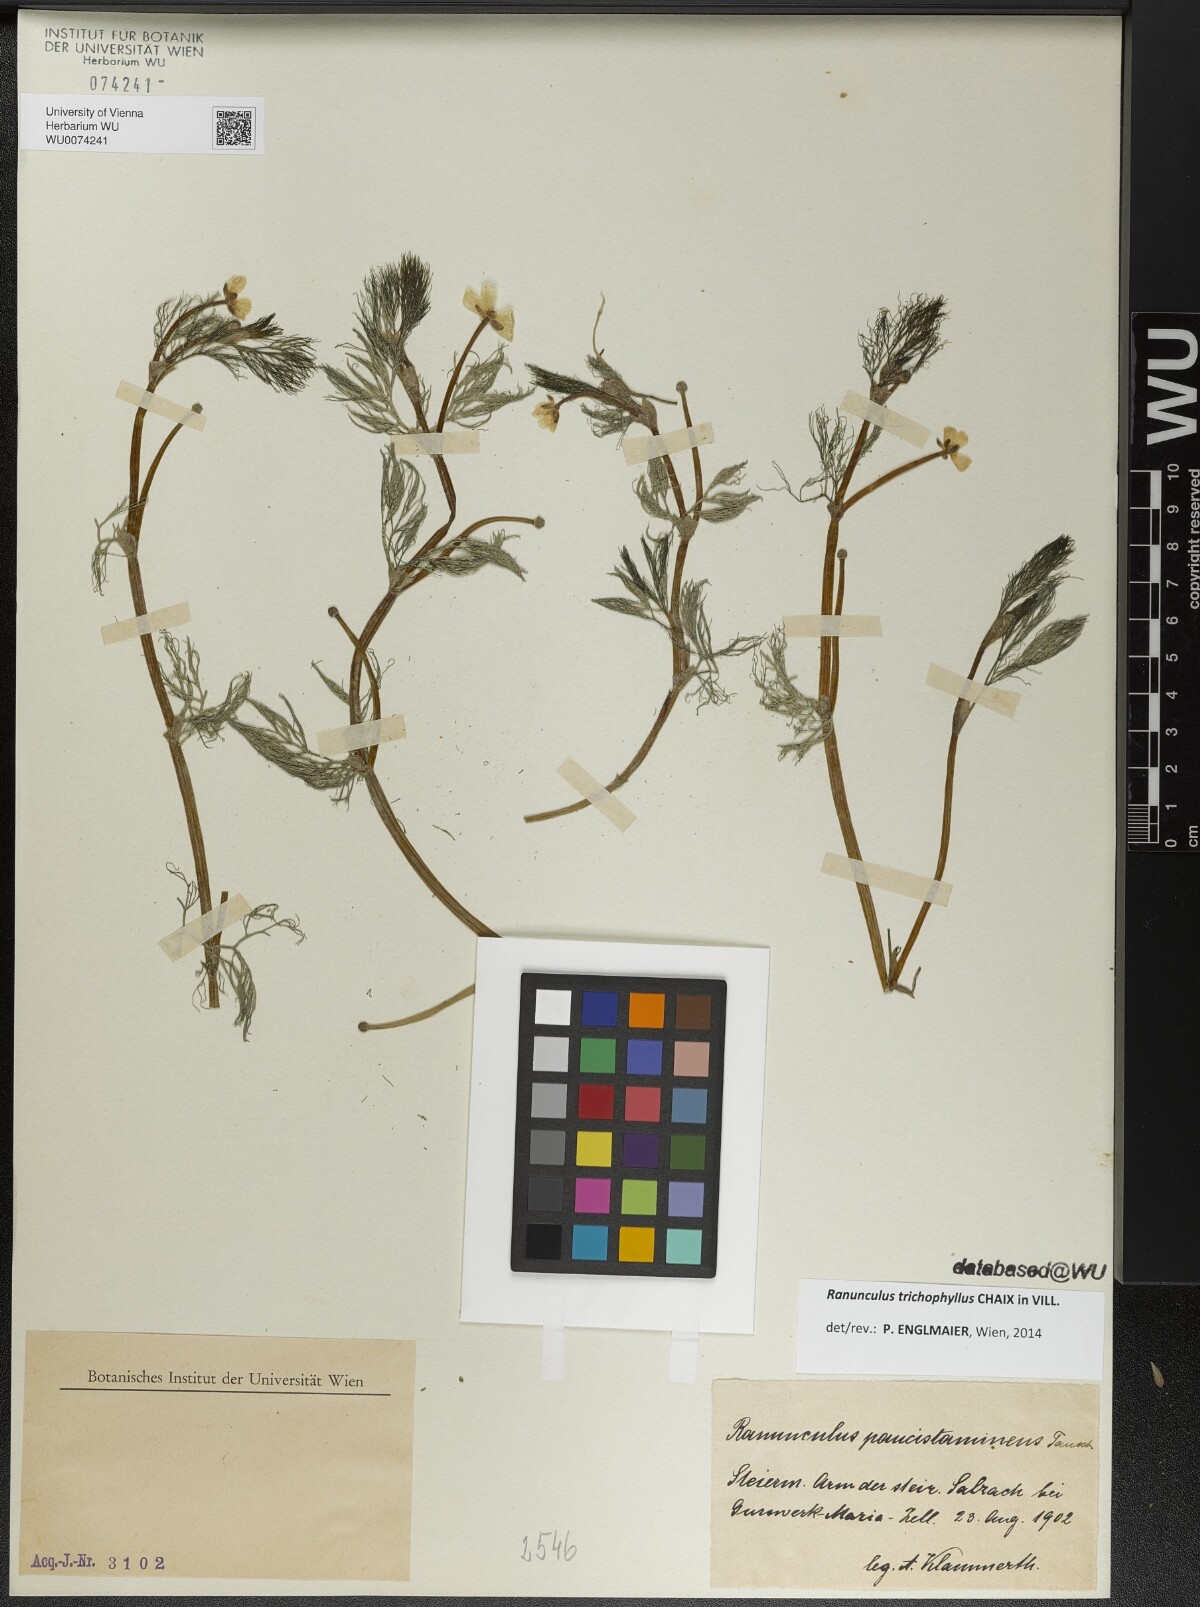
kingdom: Plantae
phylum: Tracheophyta
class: Magnoliopsida
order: Ranunculales
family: Ranunculaceae
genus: Ranunculus
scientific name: Ranunculus trichophyllus
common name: Thread-leaved water-crowfoot
